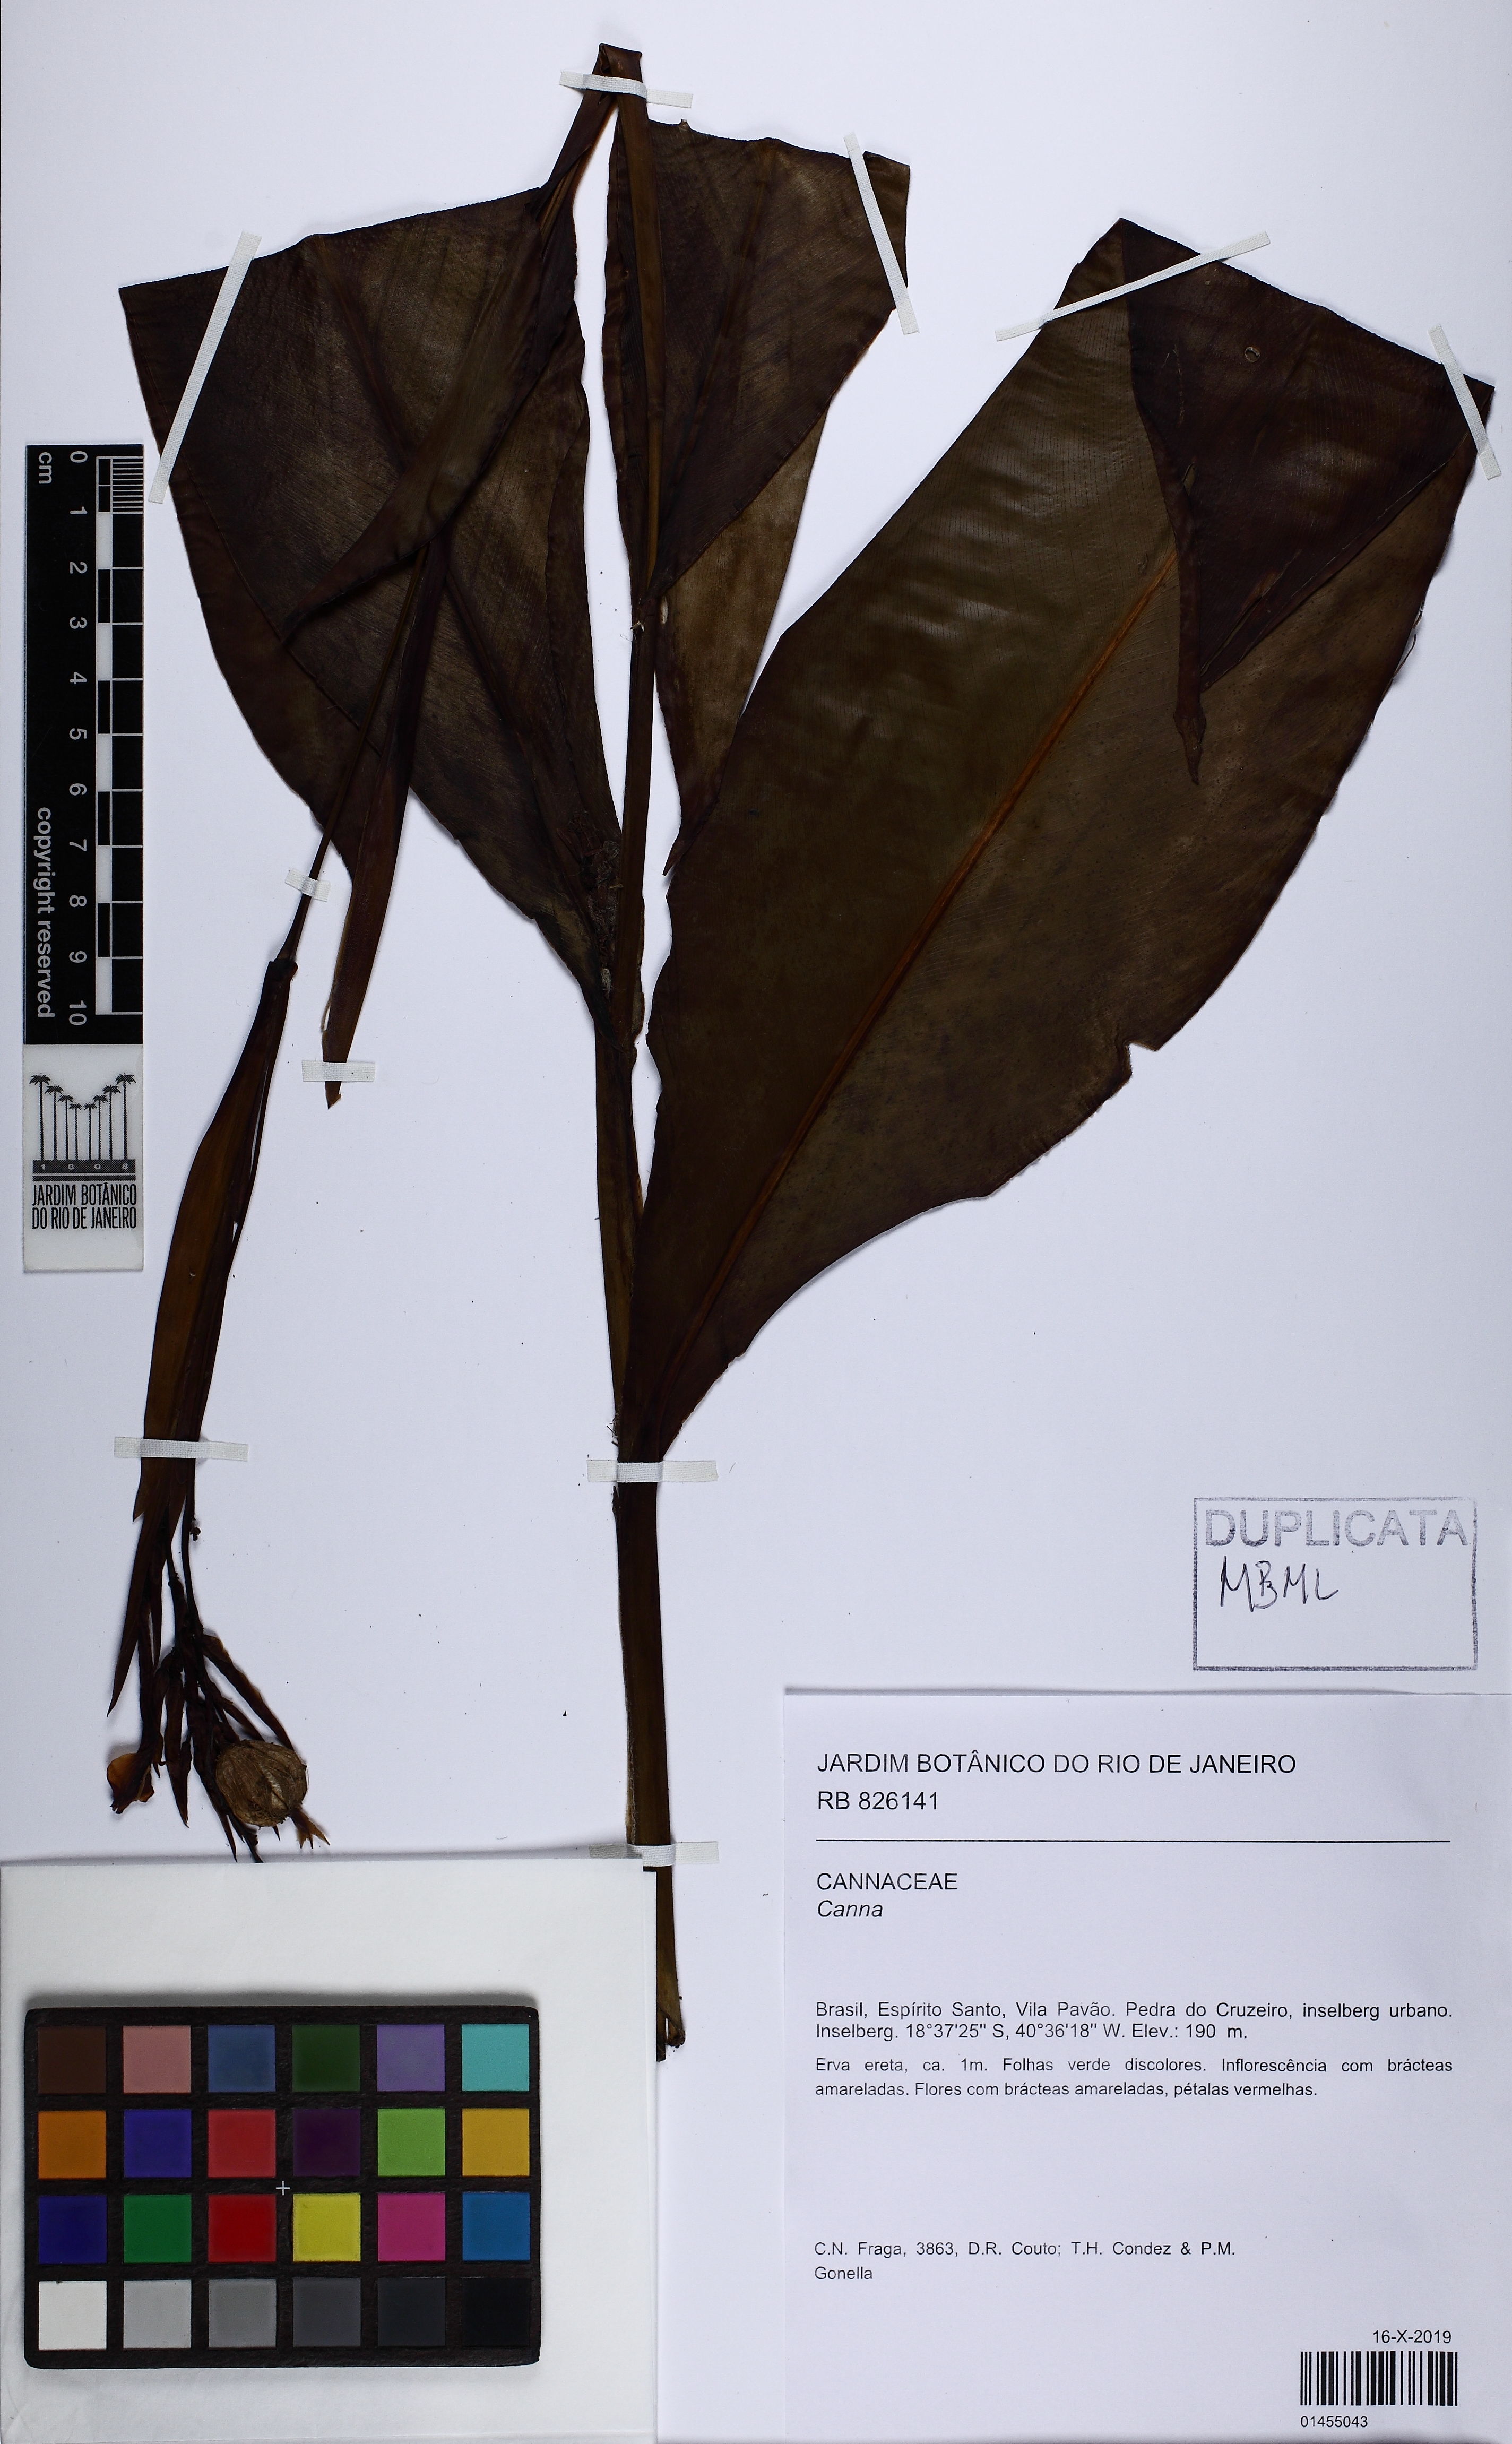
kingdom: Plantae
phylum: Tracheophyta
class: Liliopsida
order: Zingiberales
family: Cannaceae
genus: Canna
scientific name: Canna
